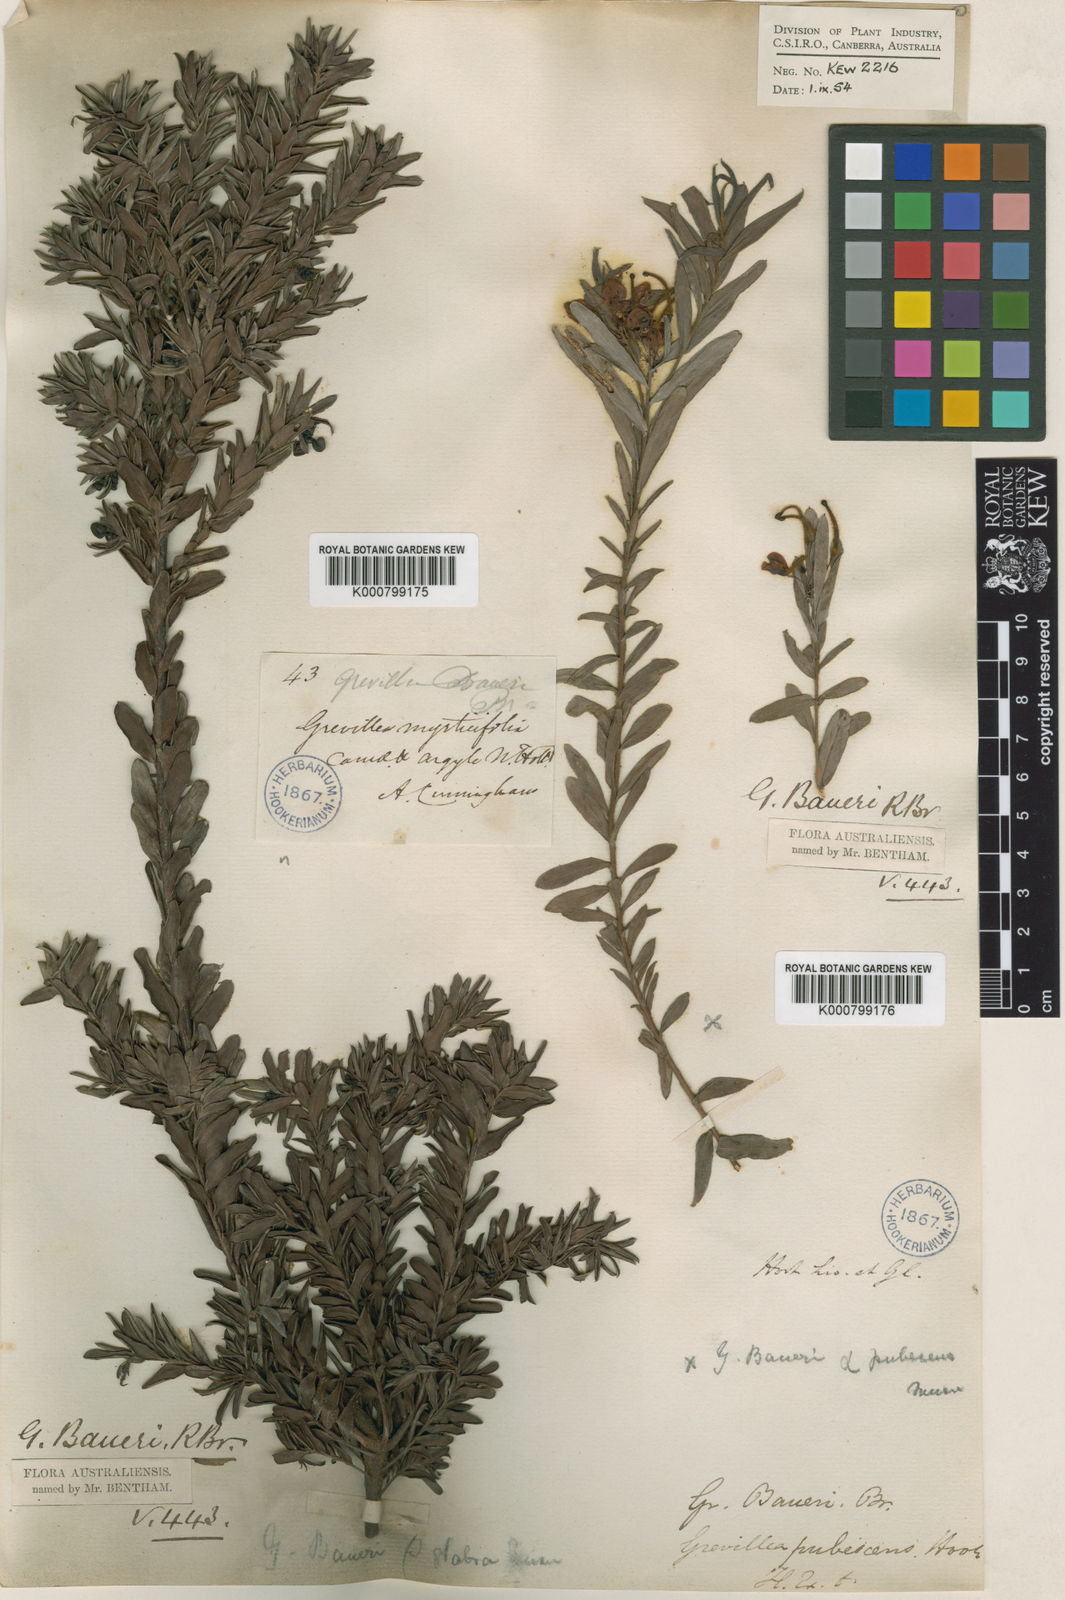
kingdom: Plantae
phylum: Tracheophyta
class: Magnoliopsida
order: Proteales
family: Proteaceae
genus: Grevillea
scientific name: Grevillea baueri
